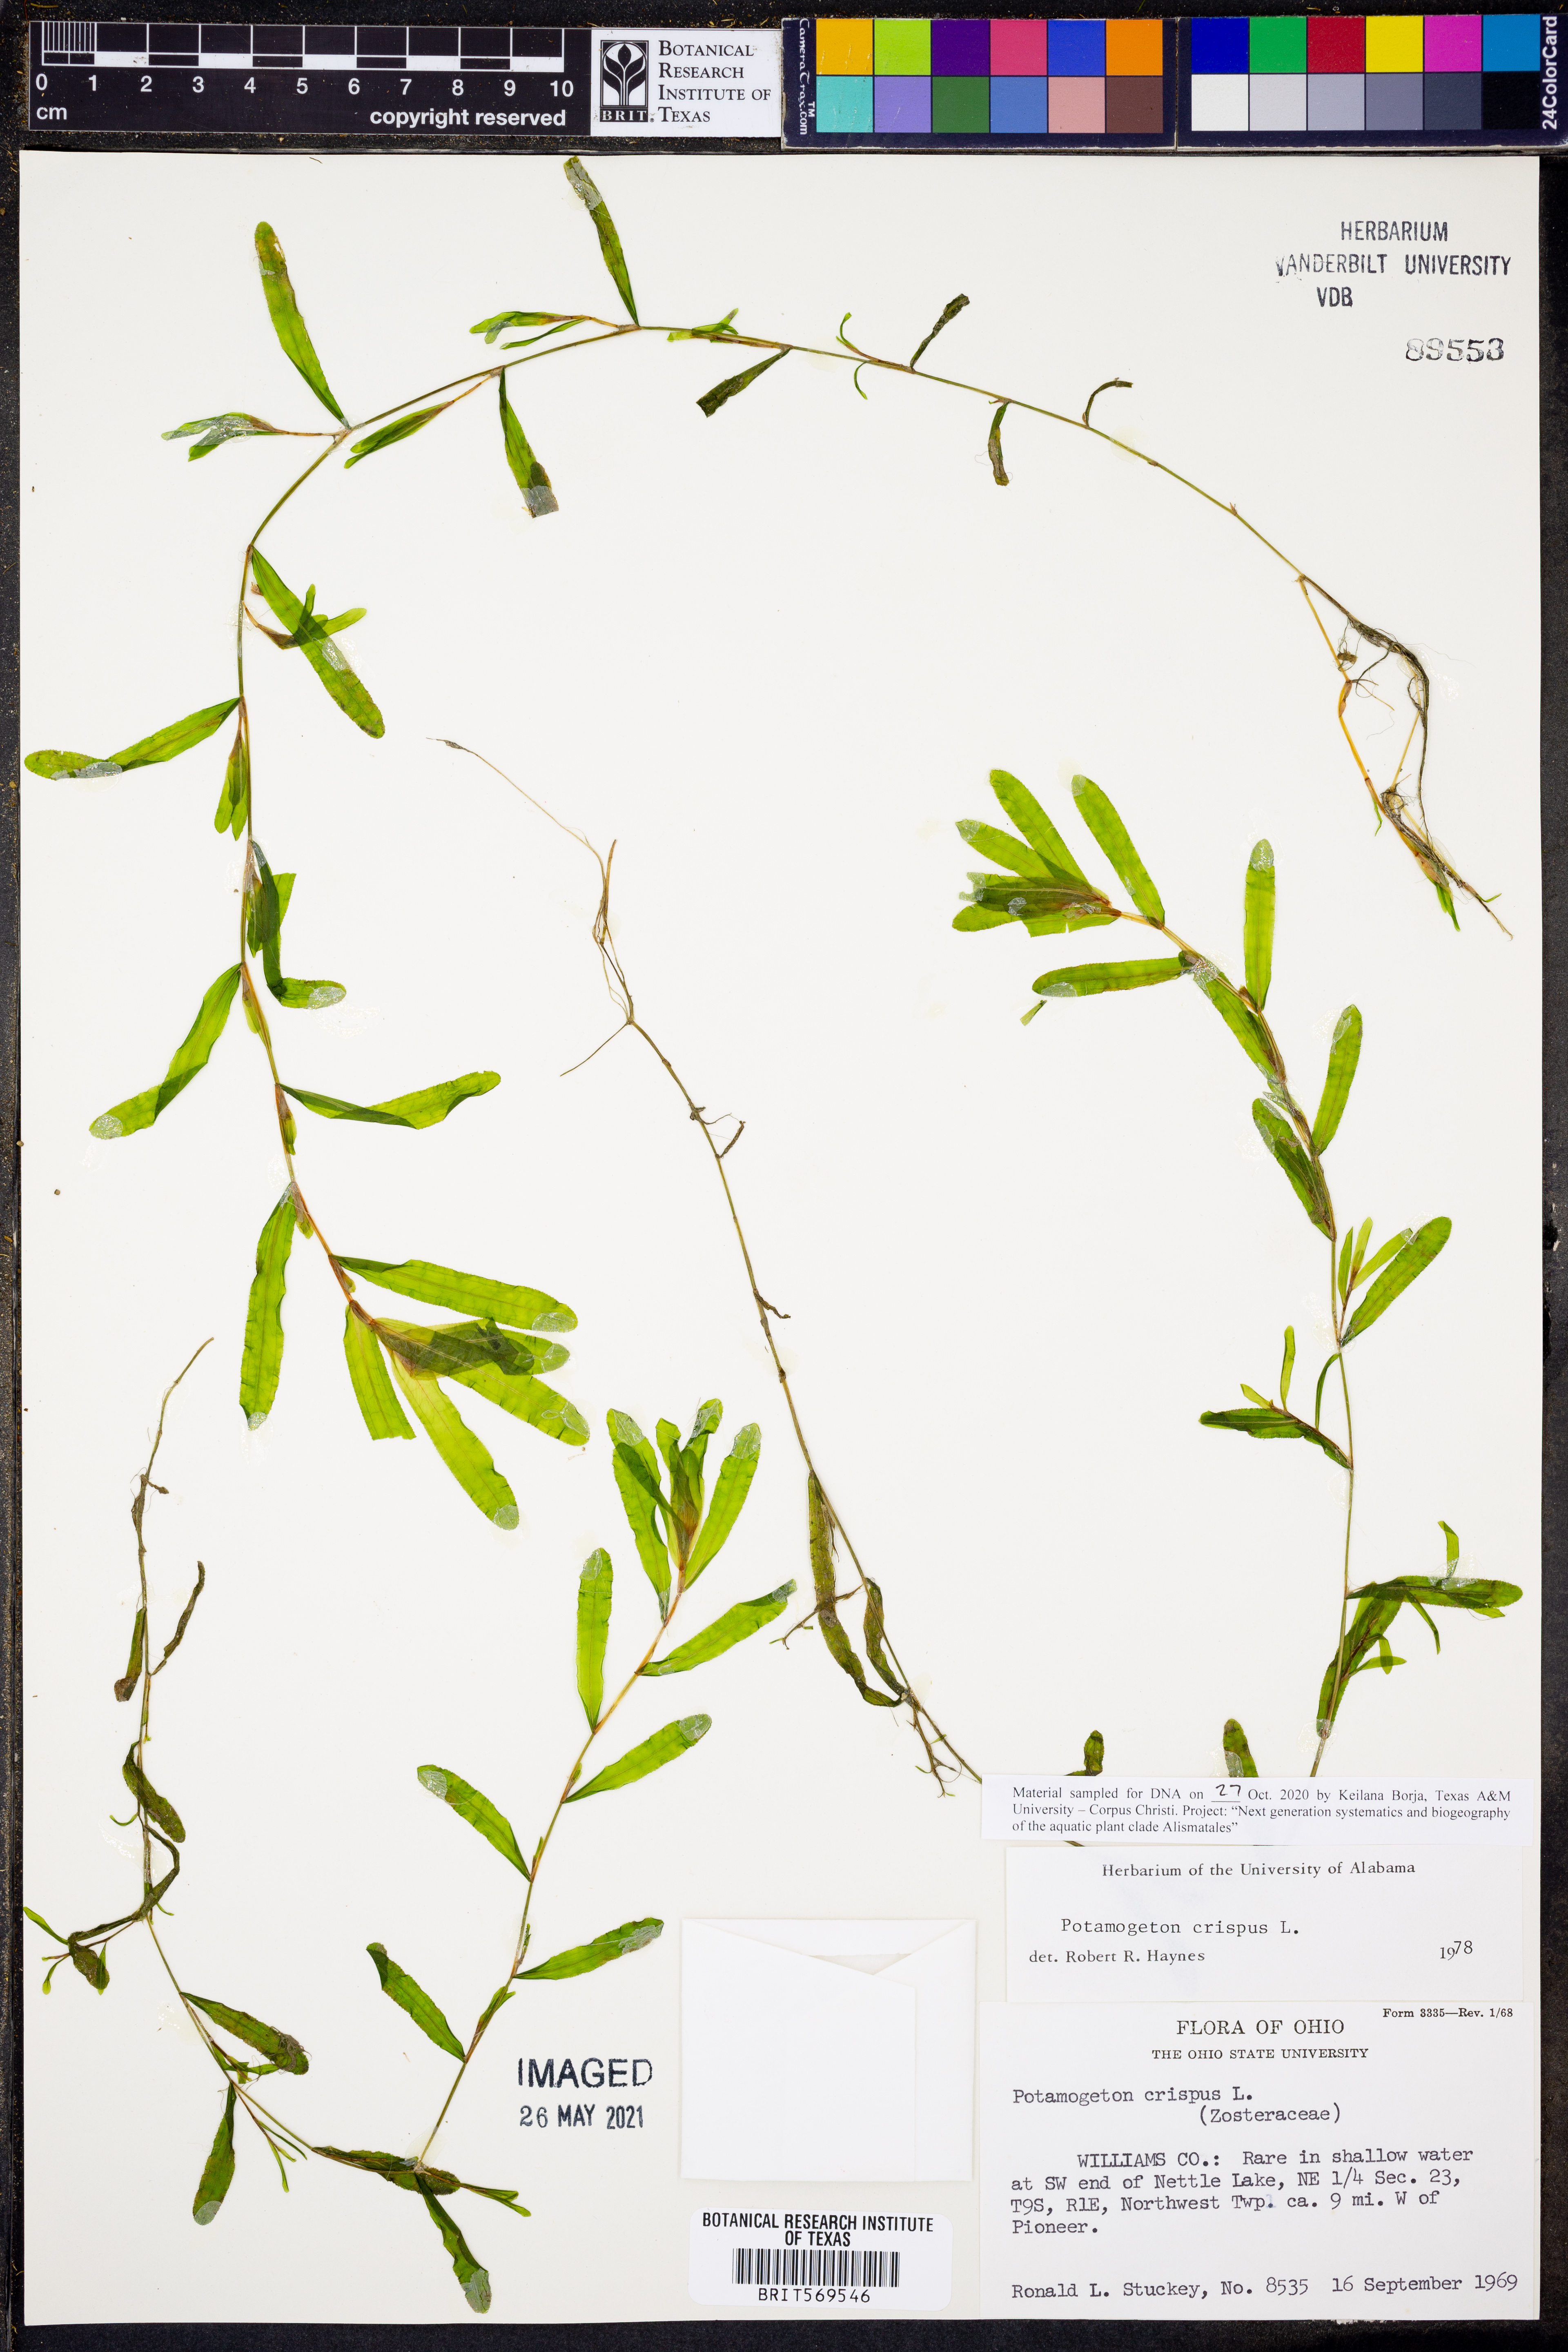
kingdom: Plantae
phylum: Tracheophyta
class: Liliopsida
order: Alismatales
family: Potamogetonaceae
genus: Potamogeton
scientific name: Potamogeton crispus
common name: Curled pondweed
